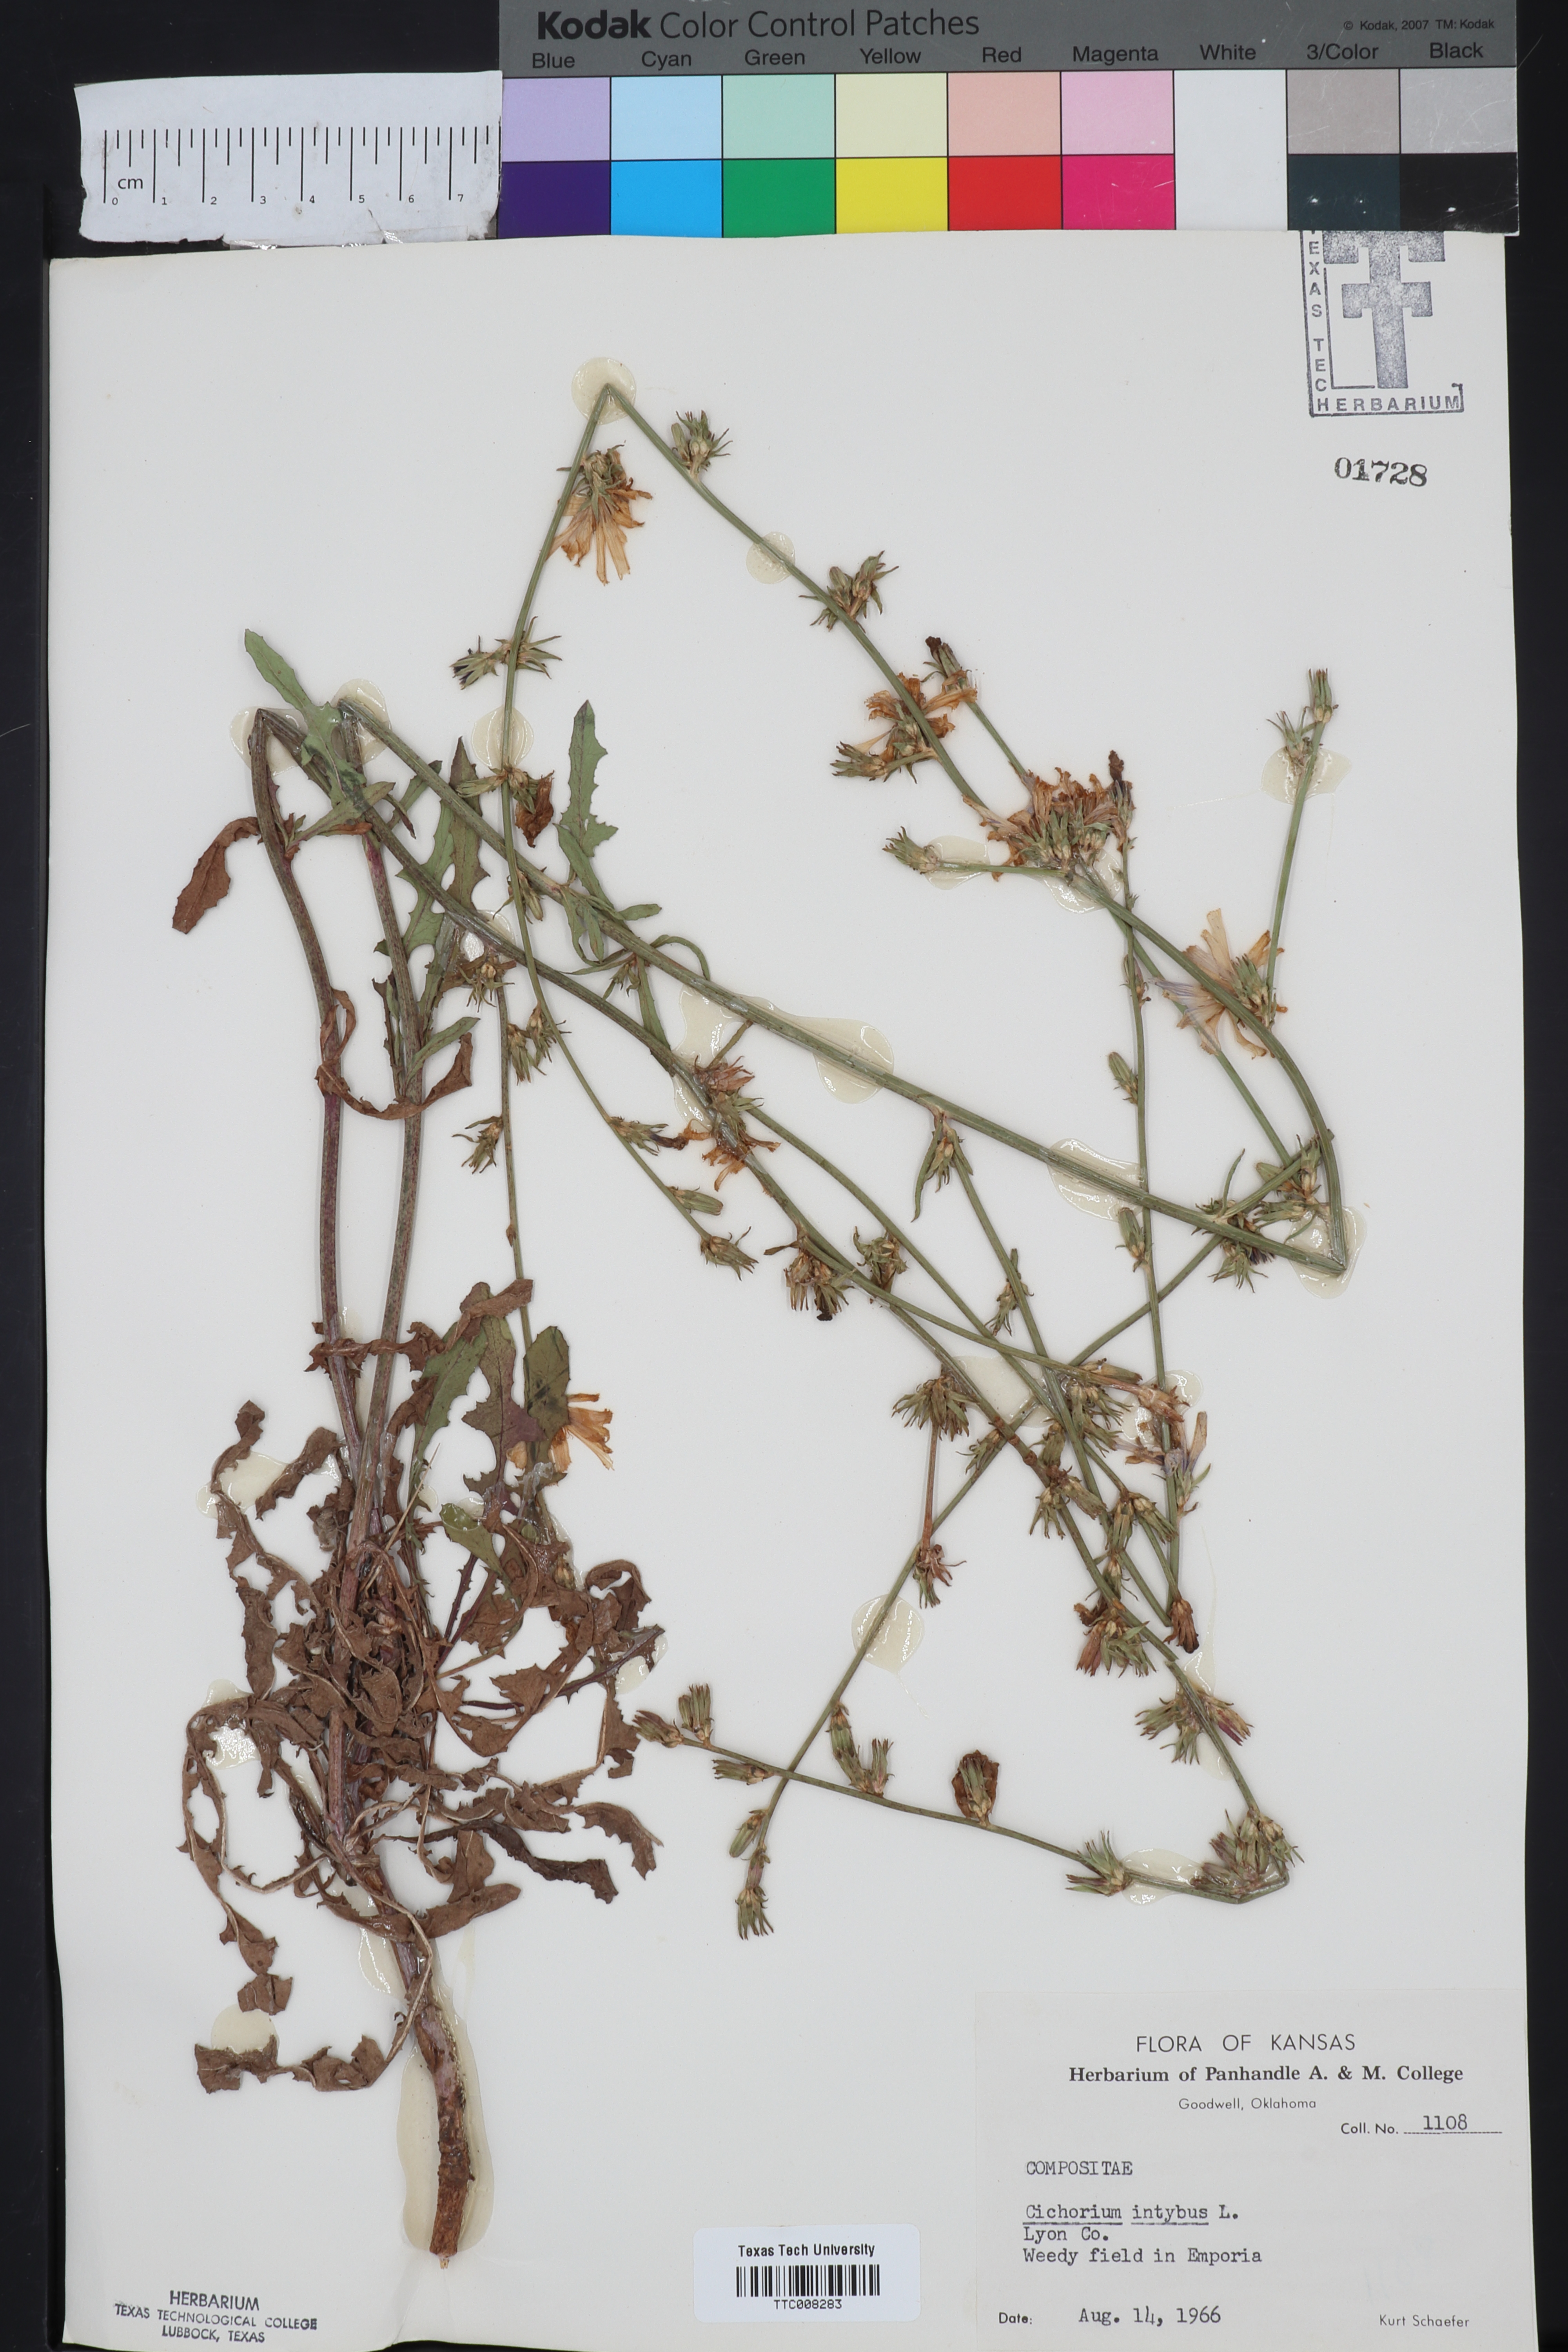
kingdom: Plantae
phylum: Tracheophyta
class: Magnoliopsida
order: Asterales
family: Asteraceae
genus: Cichorium
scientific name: Cichorium intybus
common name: Chicory
